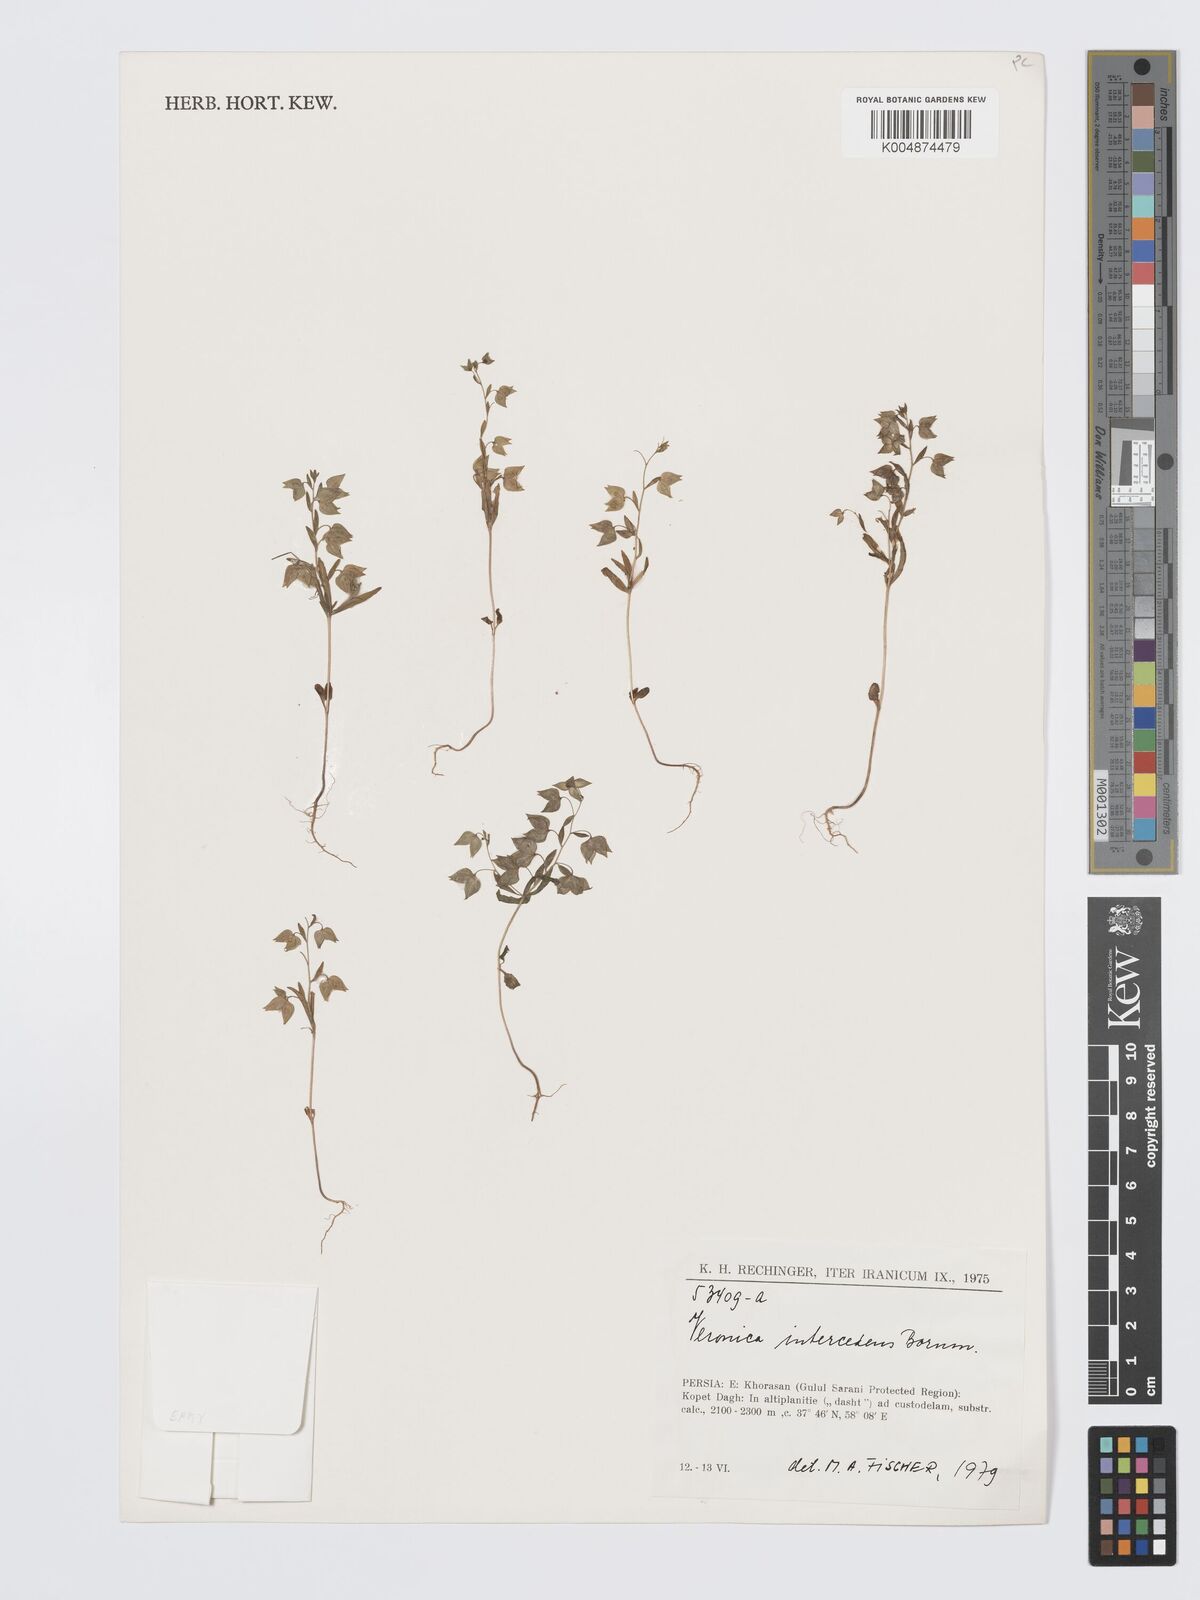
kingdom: Plantae
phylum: Tracheophyta
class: Magnoliopsida
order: Lamiales
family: Plantaginaceae
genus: Veronica
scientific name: Veronica intercedens
